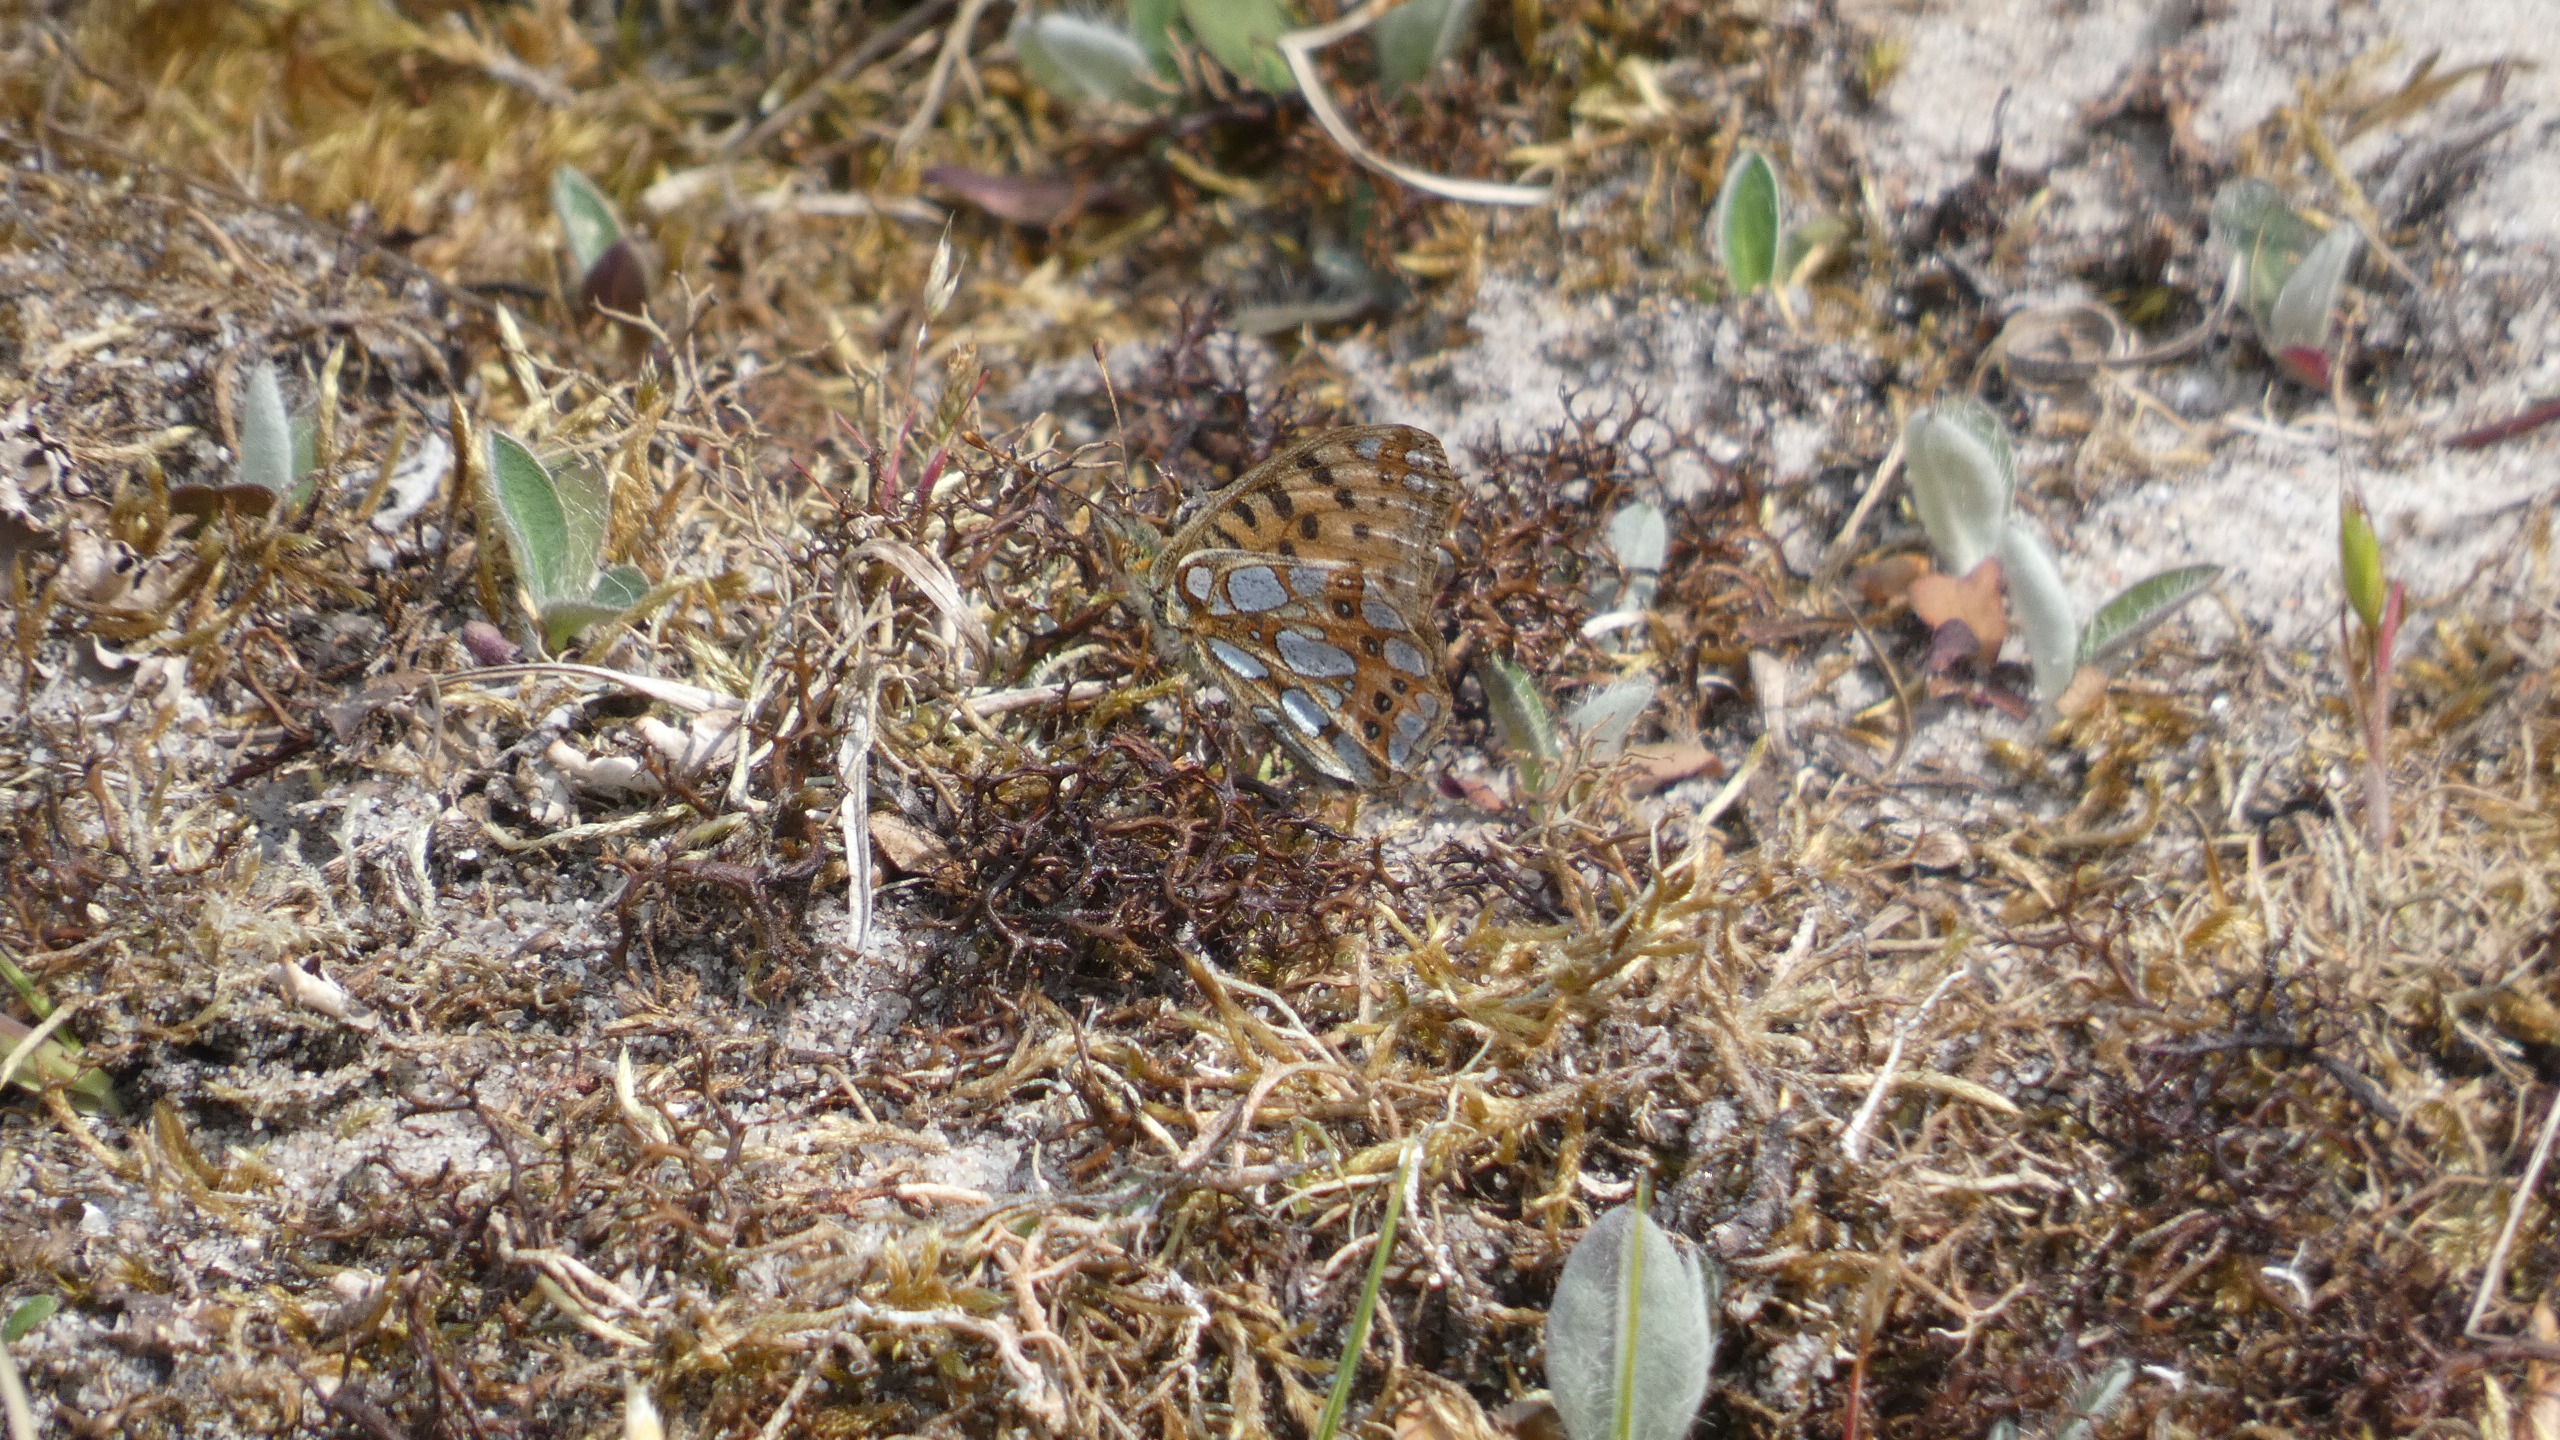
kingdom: Animalia
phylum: Arthropoda
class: Insecta
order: Lepidoptera
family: Nymphalidae
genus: Issoria
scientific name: Issoria lathonia
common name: Storplettet perlemorsommerfugl
